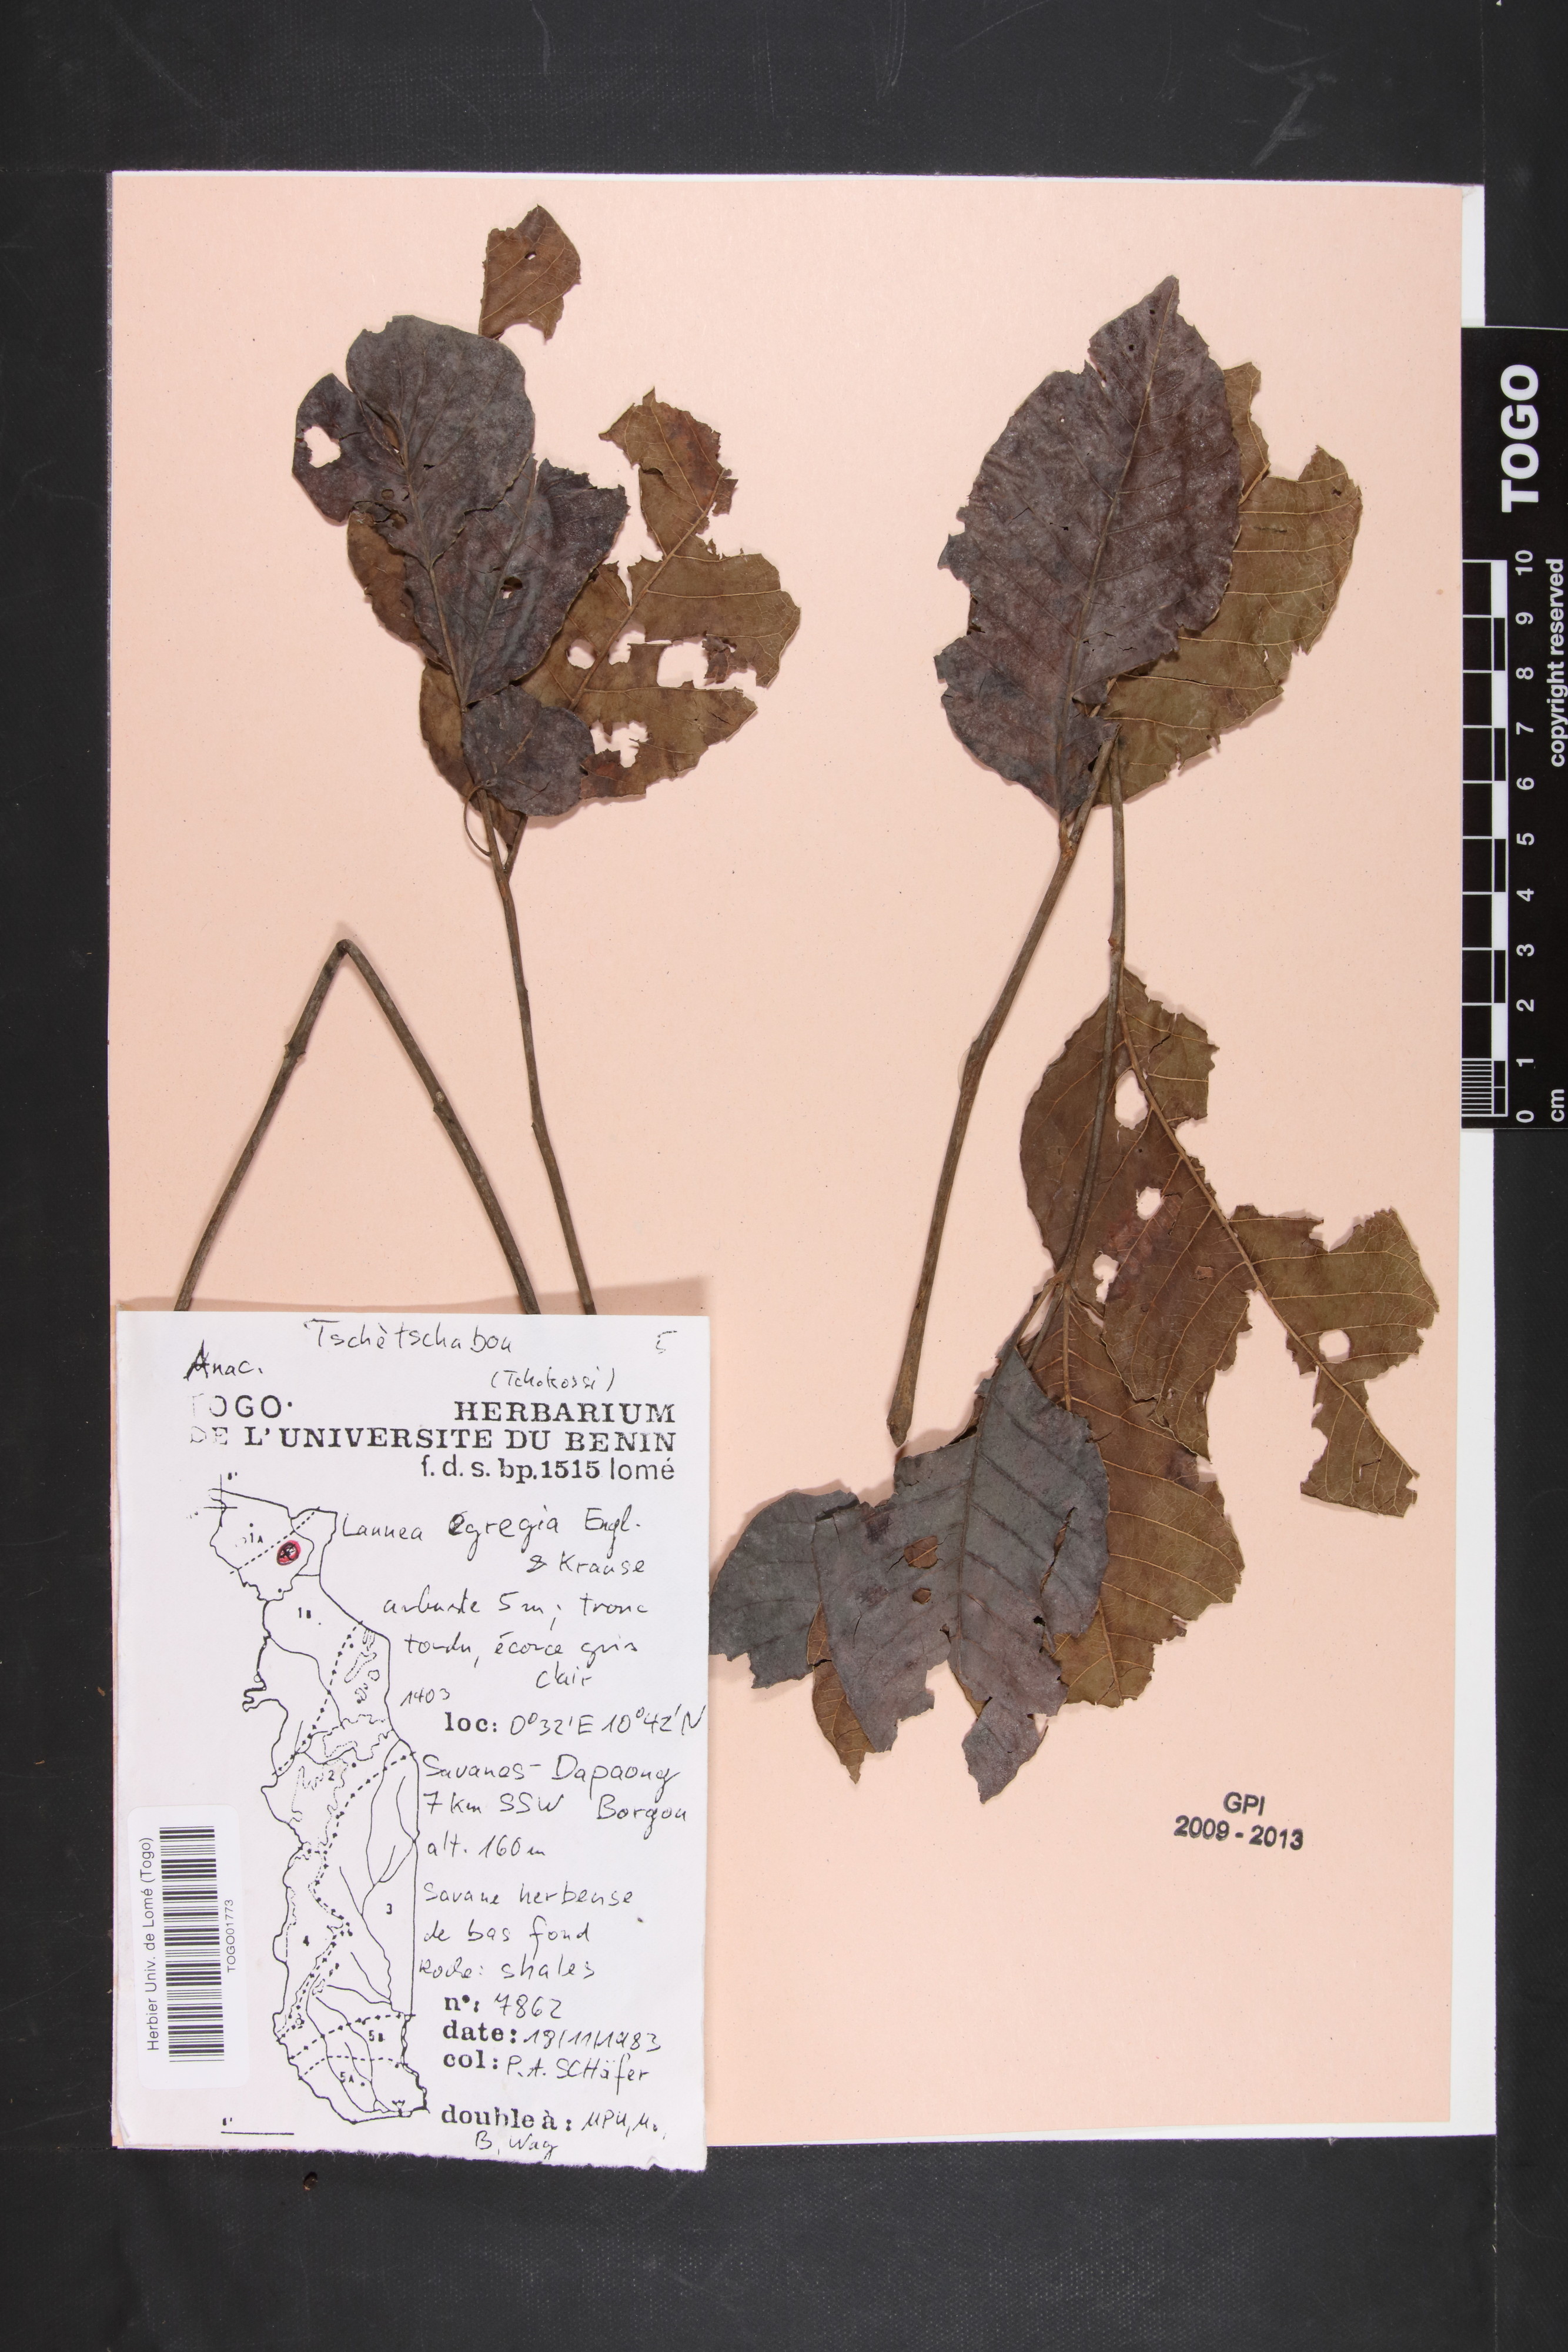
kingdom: Plantae
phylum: Tracheophyta
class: Magnoliopsida
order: Sapindales
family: Anacardiaceae
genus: Lannea
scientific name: Lannea barteri
